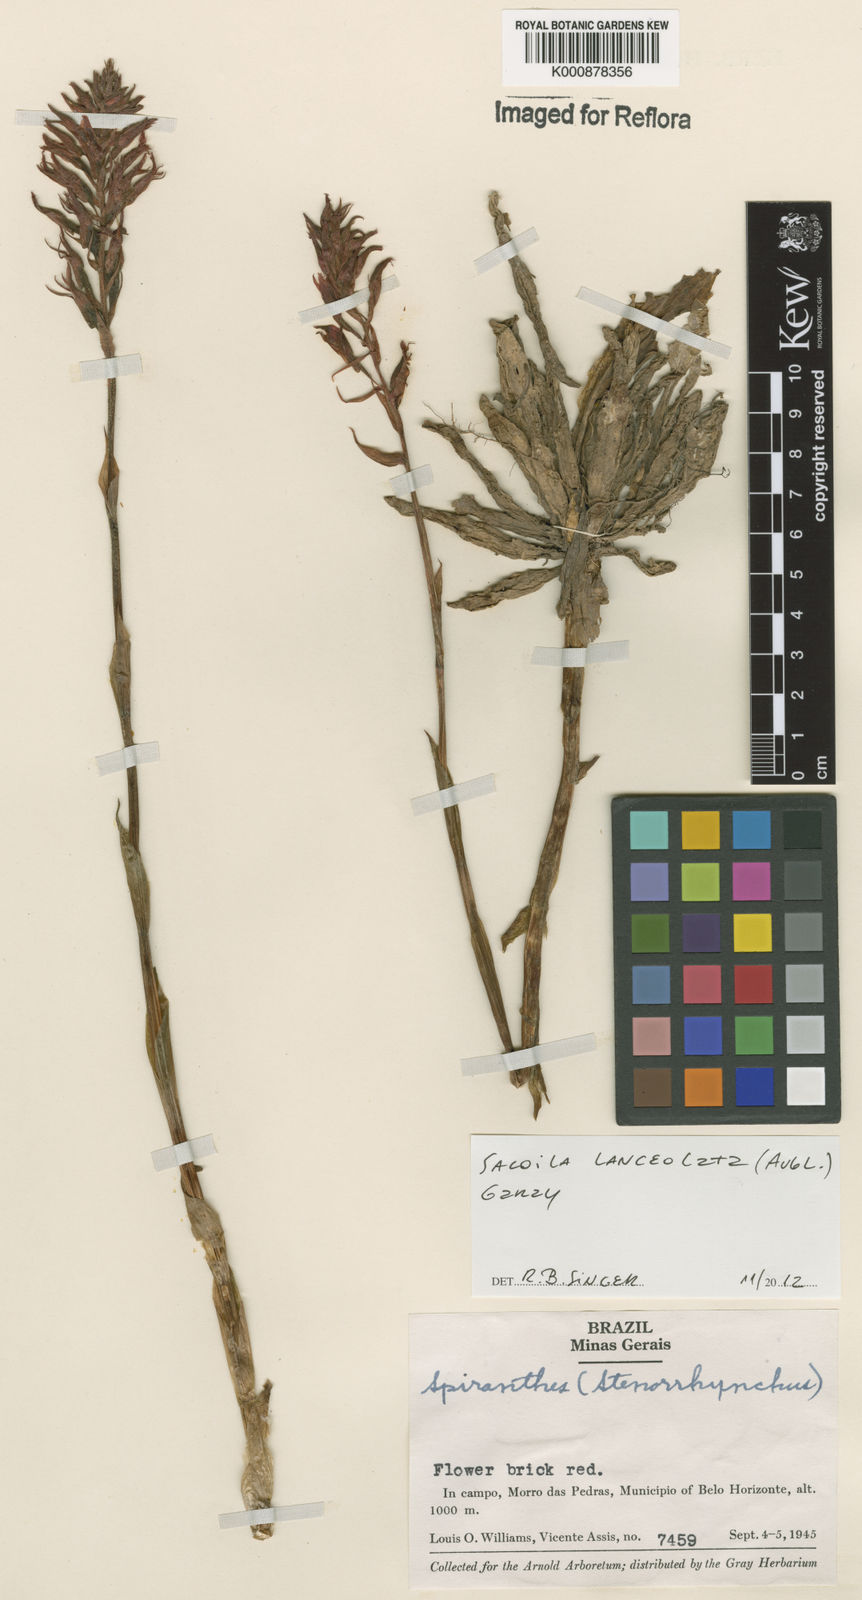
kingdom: Plantae
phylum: Tracheophyta
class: Liliopsida
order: Asparagales
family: Orchidaceae
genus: Sacoila
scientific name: Sacoila lanceolata
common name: Leafless beaked ladiestresses
